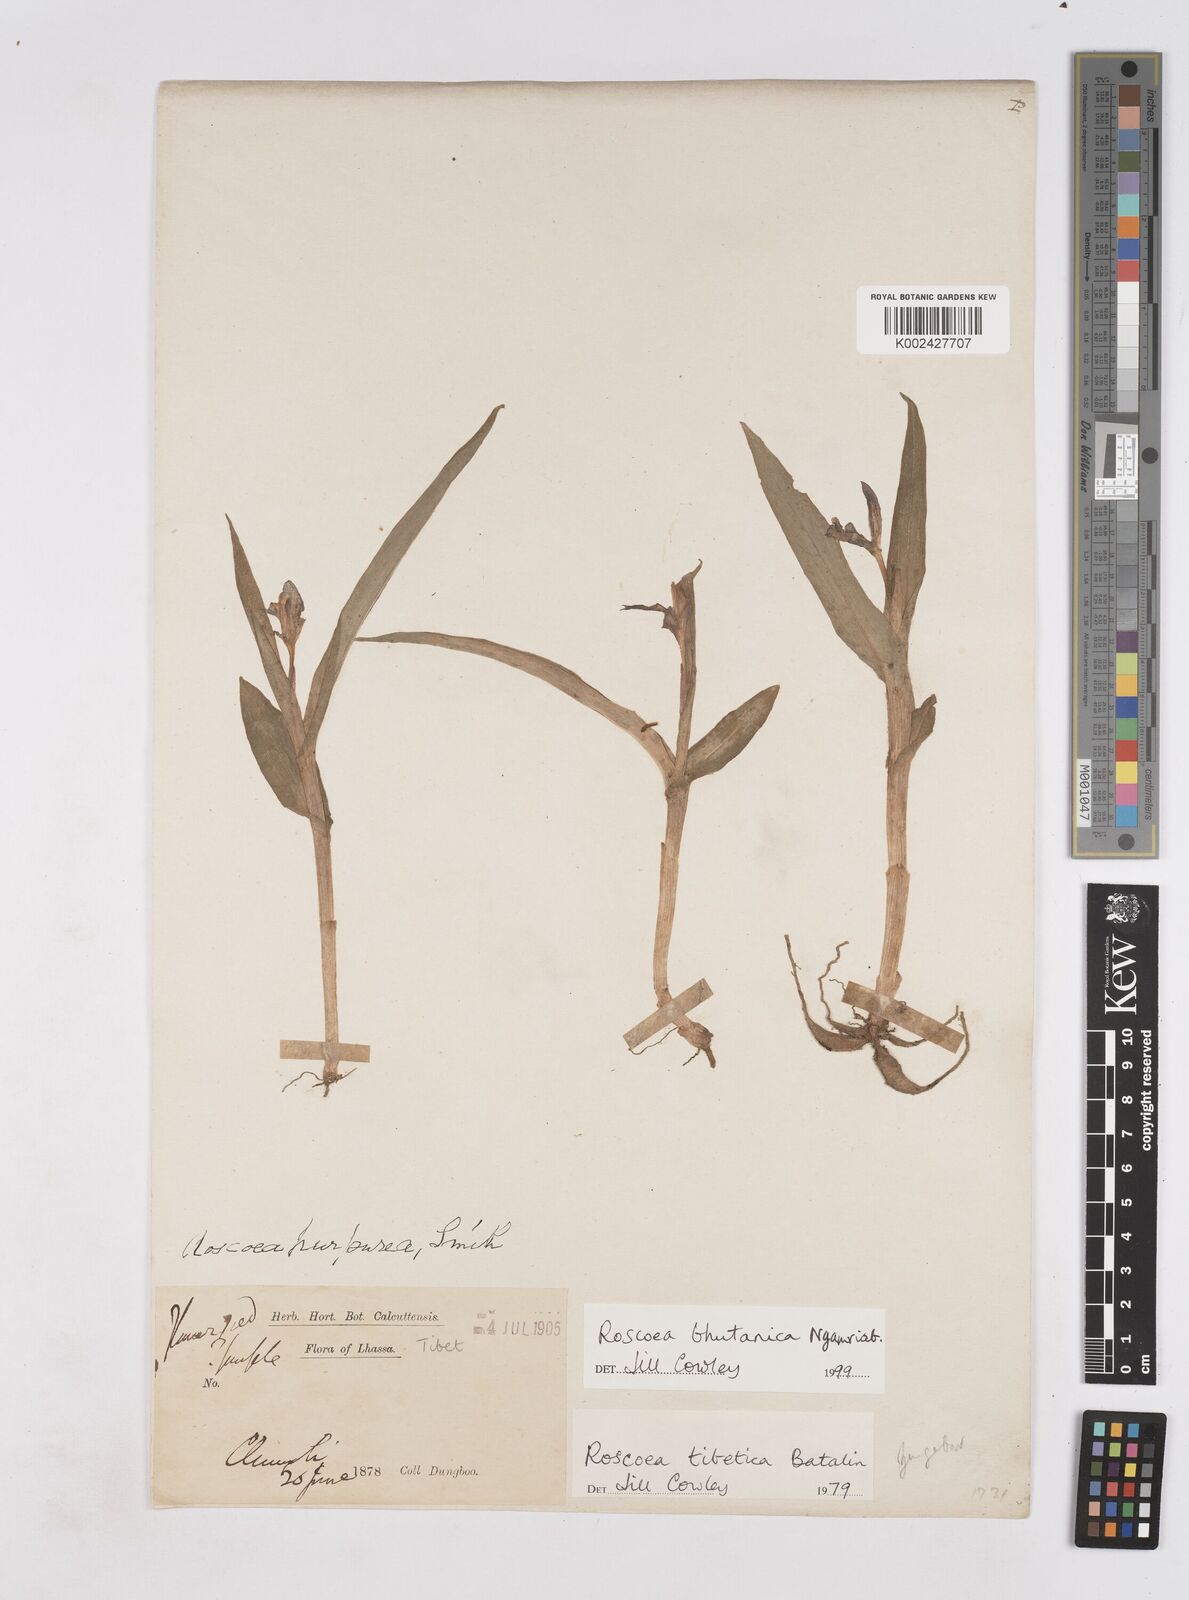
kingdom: Plantae
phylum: Tracheophyta
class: Liliopsida
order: Zingiberales
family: Zingiberaceae
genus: Roscoea
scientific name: Roscoea bhutanica
